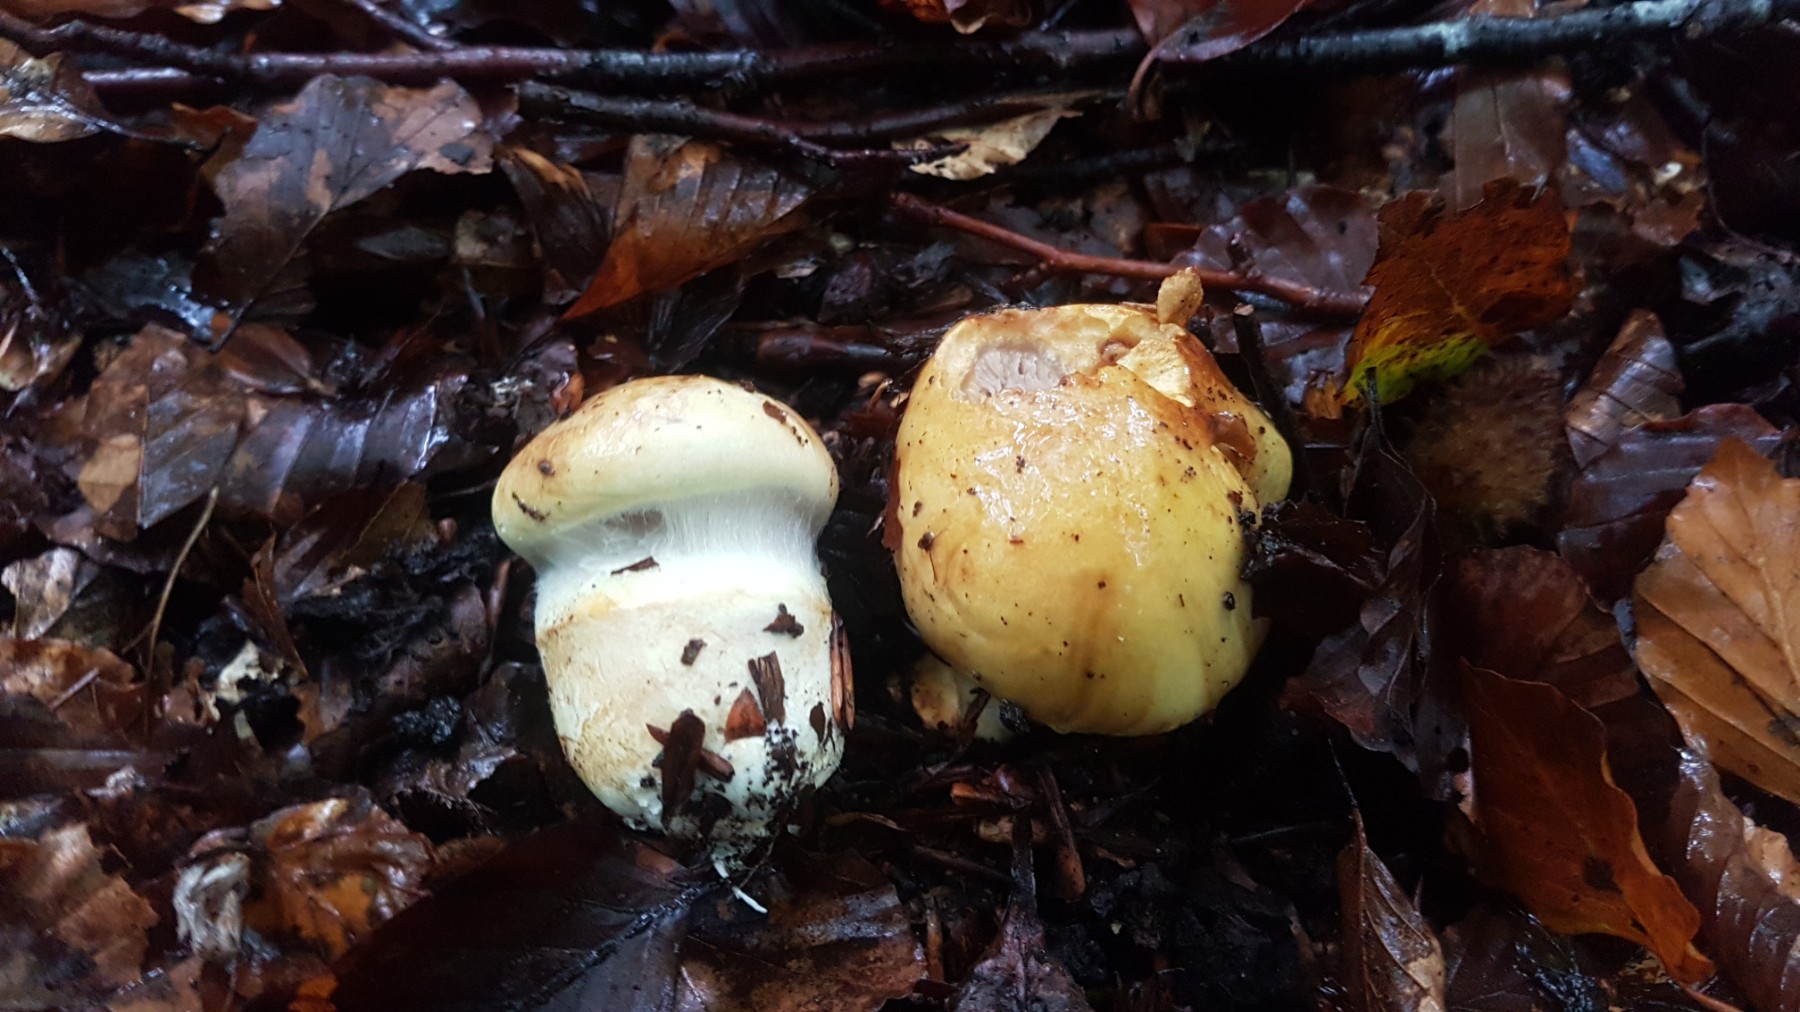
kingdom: Fungi
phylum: Basidiomycota
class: Agaricomycetes
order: Agaricales
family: Cortinariaceae
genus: Phlegmacium
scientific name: Phlegmacium caesiocortinatum
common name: rundsporet slørhat
